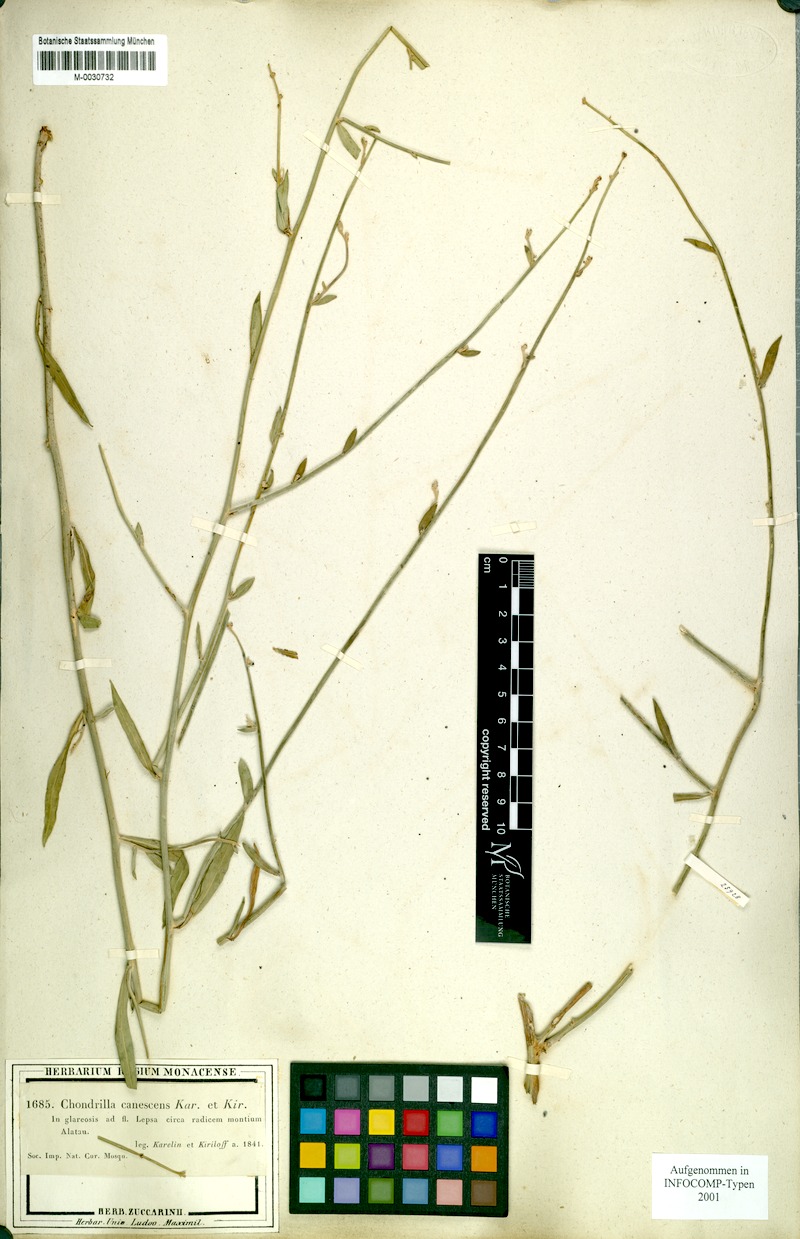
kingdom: Plantae
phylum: Tracheophyta
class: Magnoliopsida
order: Asterales
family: Asteraceae
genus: Chondrilla
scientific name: Chondrilla canescens
